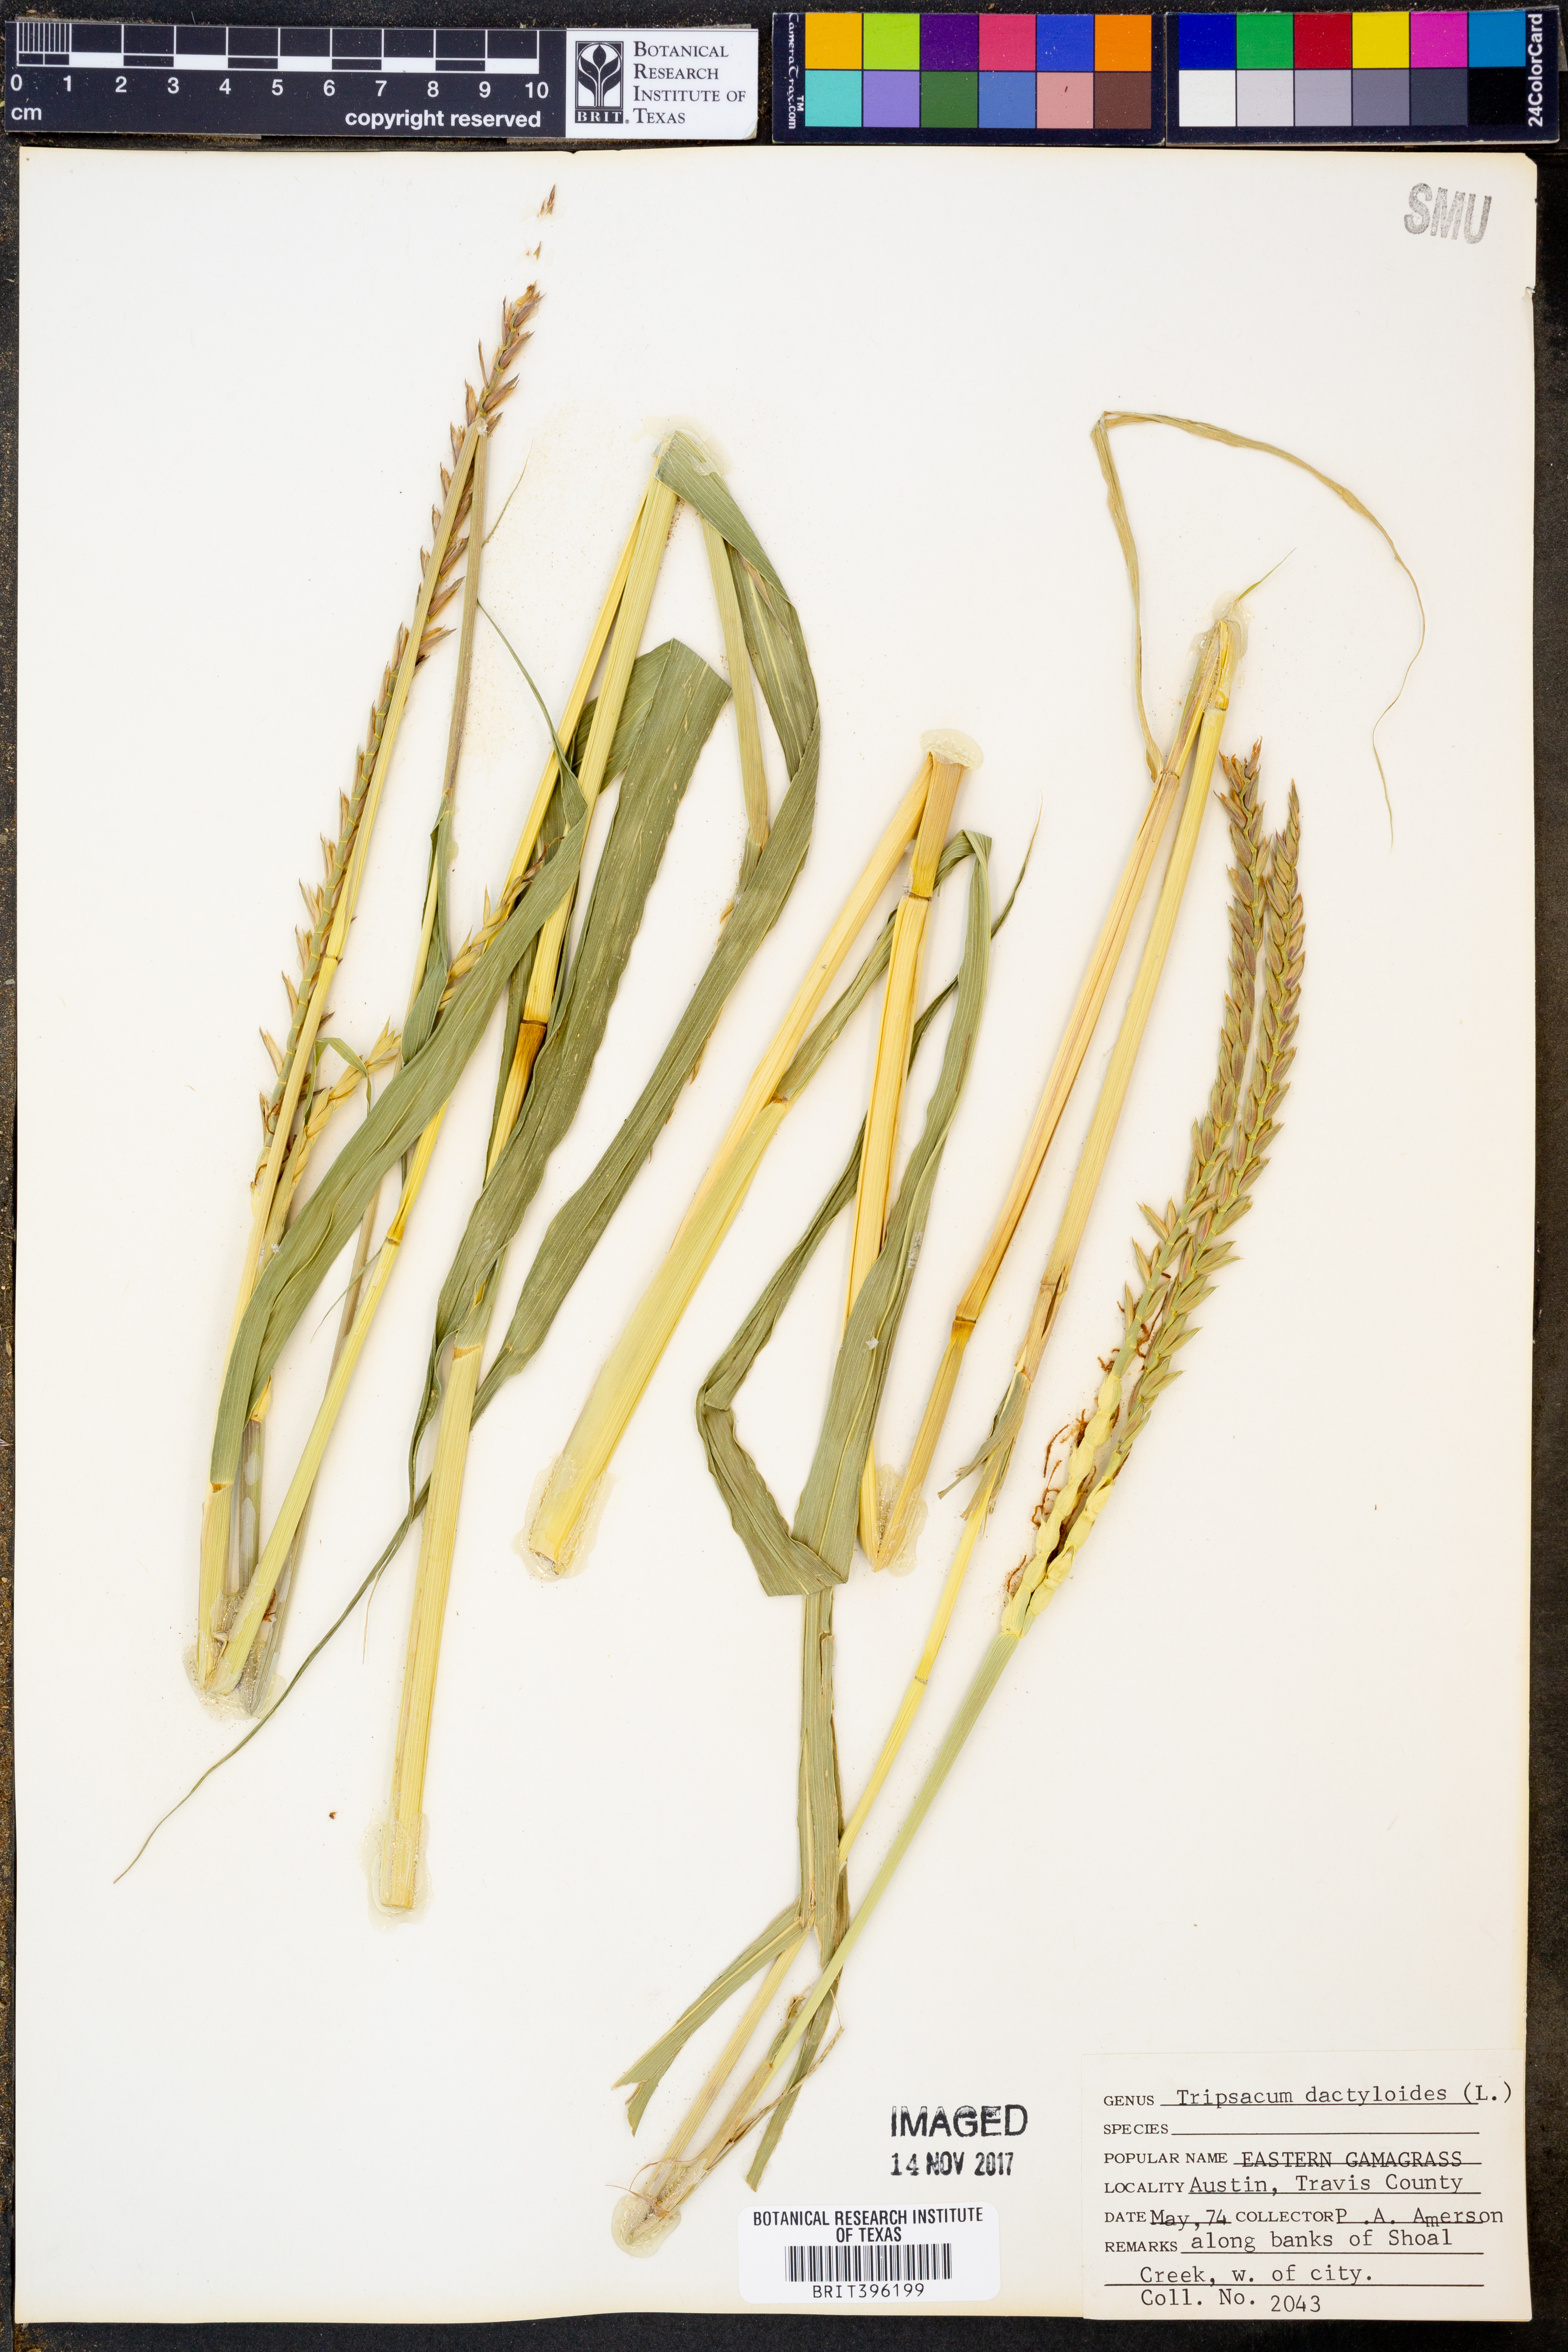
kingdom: Plantae
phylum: Tracheophyta
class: Liliopsida
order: Poales
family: Poaceae
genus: Tripsacum
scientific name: Tripsacum dactyloides
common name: Buffalo-grass
